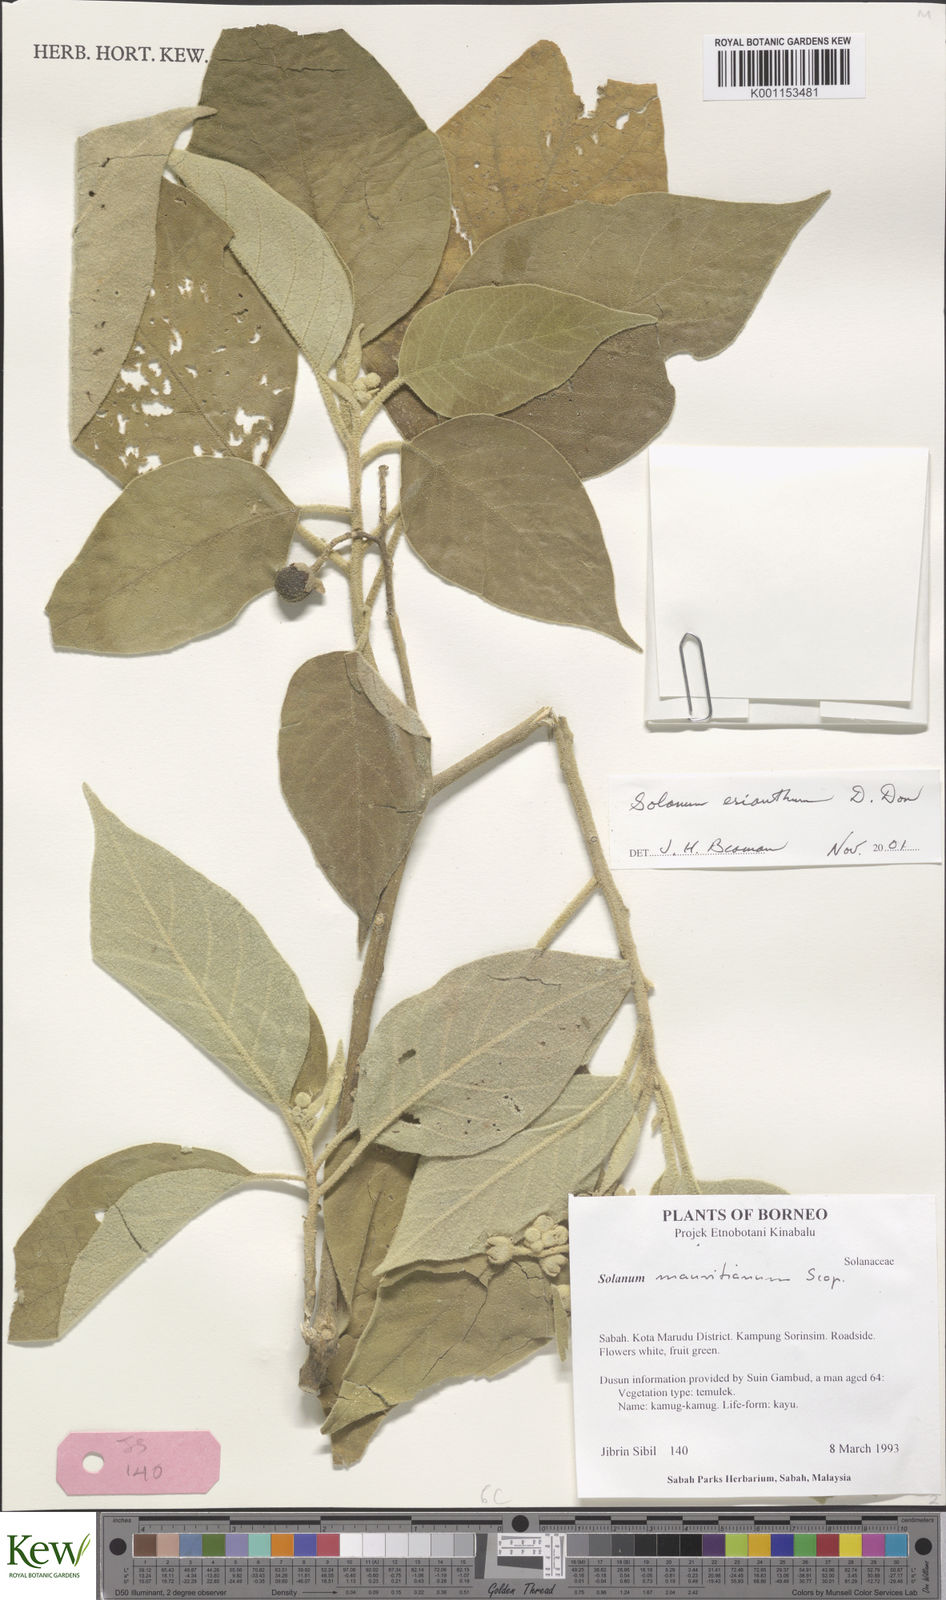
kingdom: Plantae
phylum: Tracheophyta
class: Magnoliopsida
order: Solanales
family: Solanaceae
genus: Solanum
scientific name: Solanum erianthum
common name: Tobacco-tree
